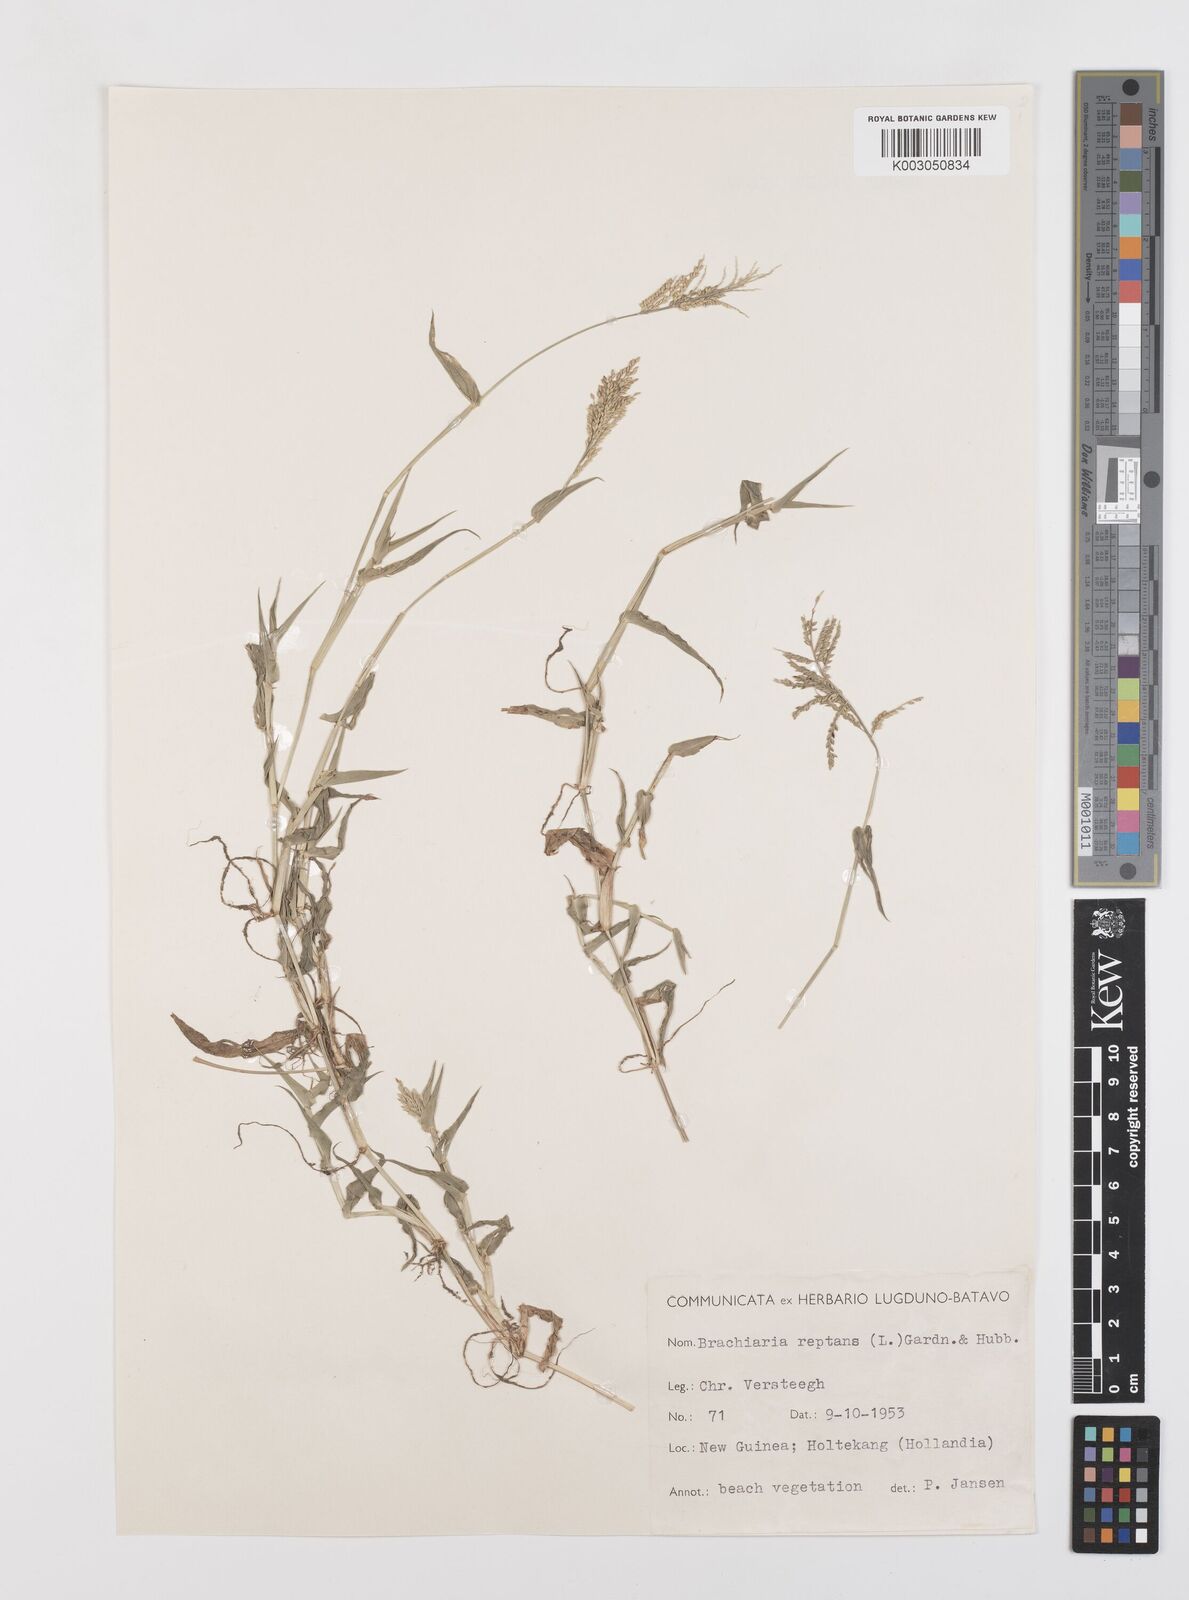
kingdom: Plantae
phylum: Tracheophyta
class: Liliopsida
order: Poales
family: Poaceae
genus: Urochloa
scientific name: Urochloa reptans
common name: Sprawling signalgrass
